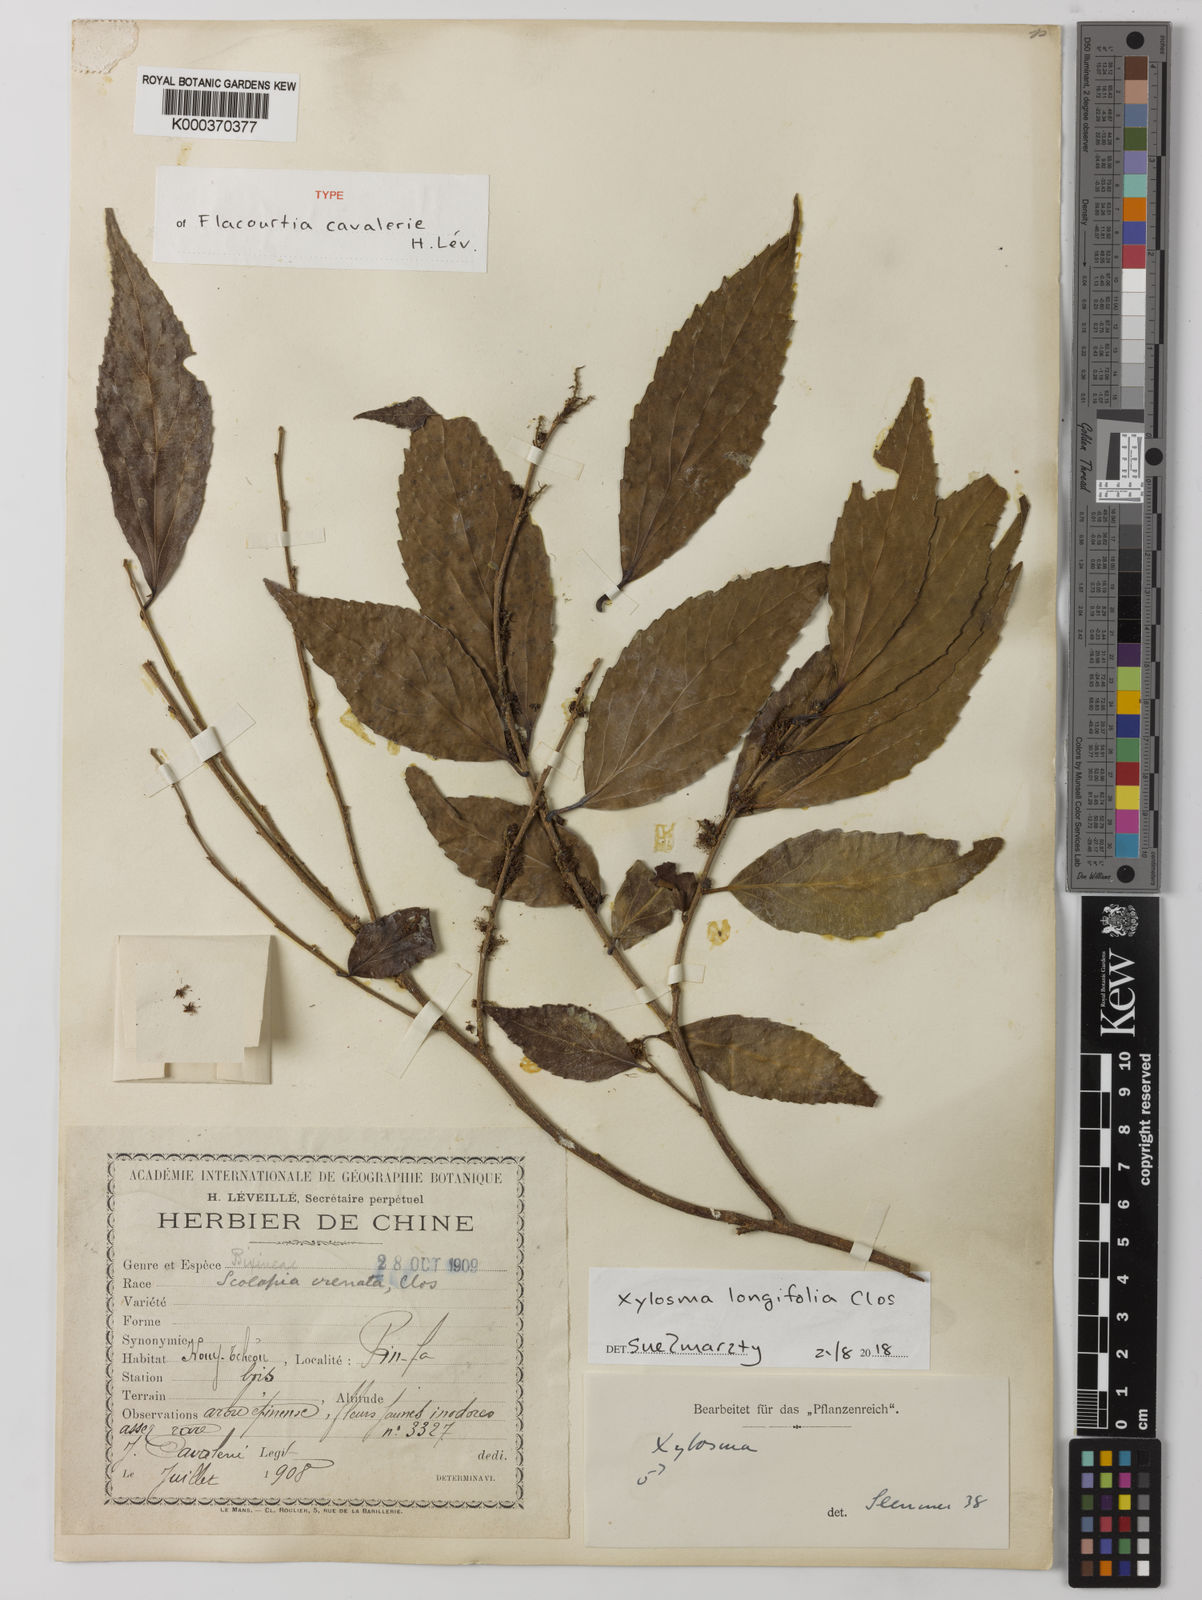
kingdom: Plantae
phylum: Tracheophyta
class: Magnoliopsida
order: Malpighiales
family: Salicaceae
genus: Xylosma
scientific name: Xylosma longifolia
